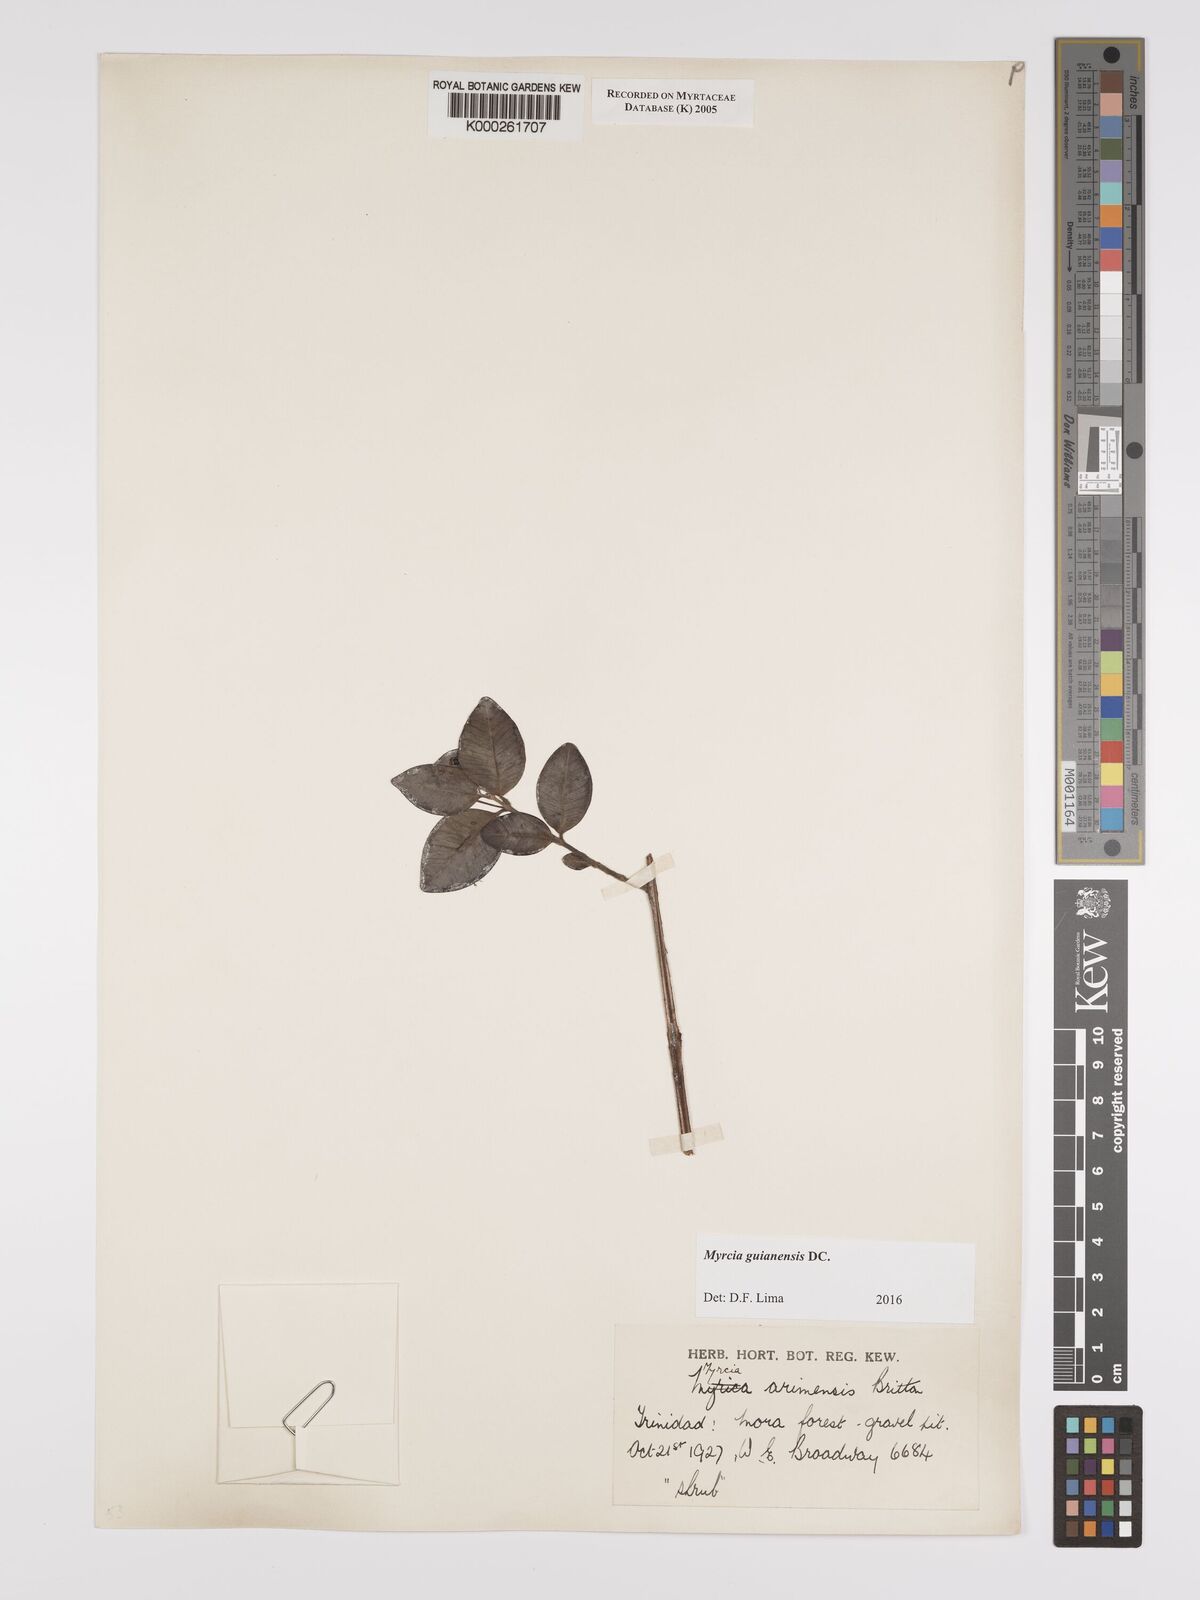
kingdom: Plantae
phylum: Tracheophyta
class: Magnoliopsida
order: Myrtales
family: Myrtaceae
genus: Myrcia
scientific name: Myrcia guianensis
